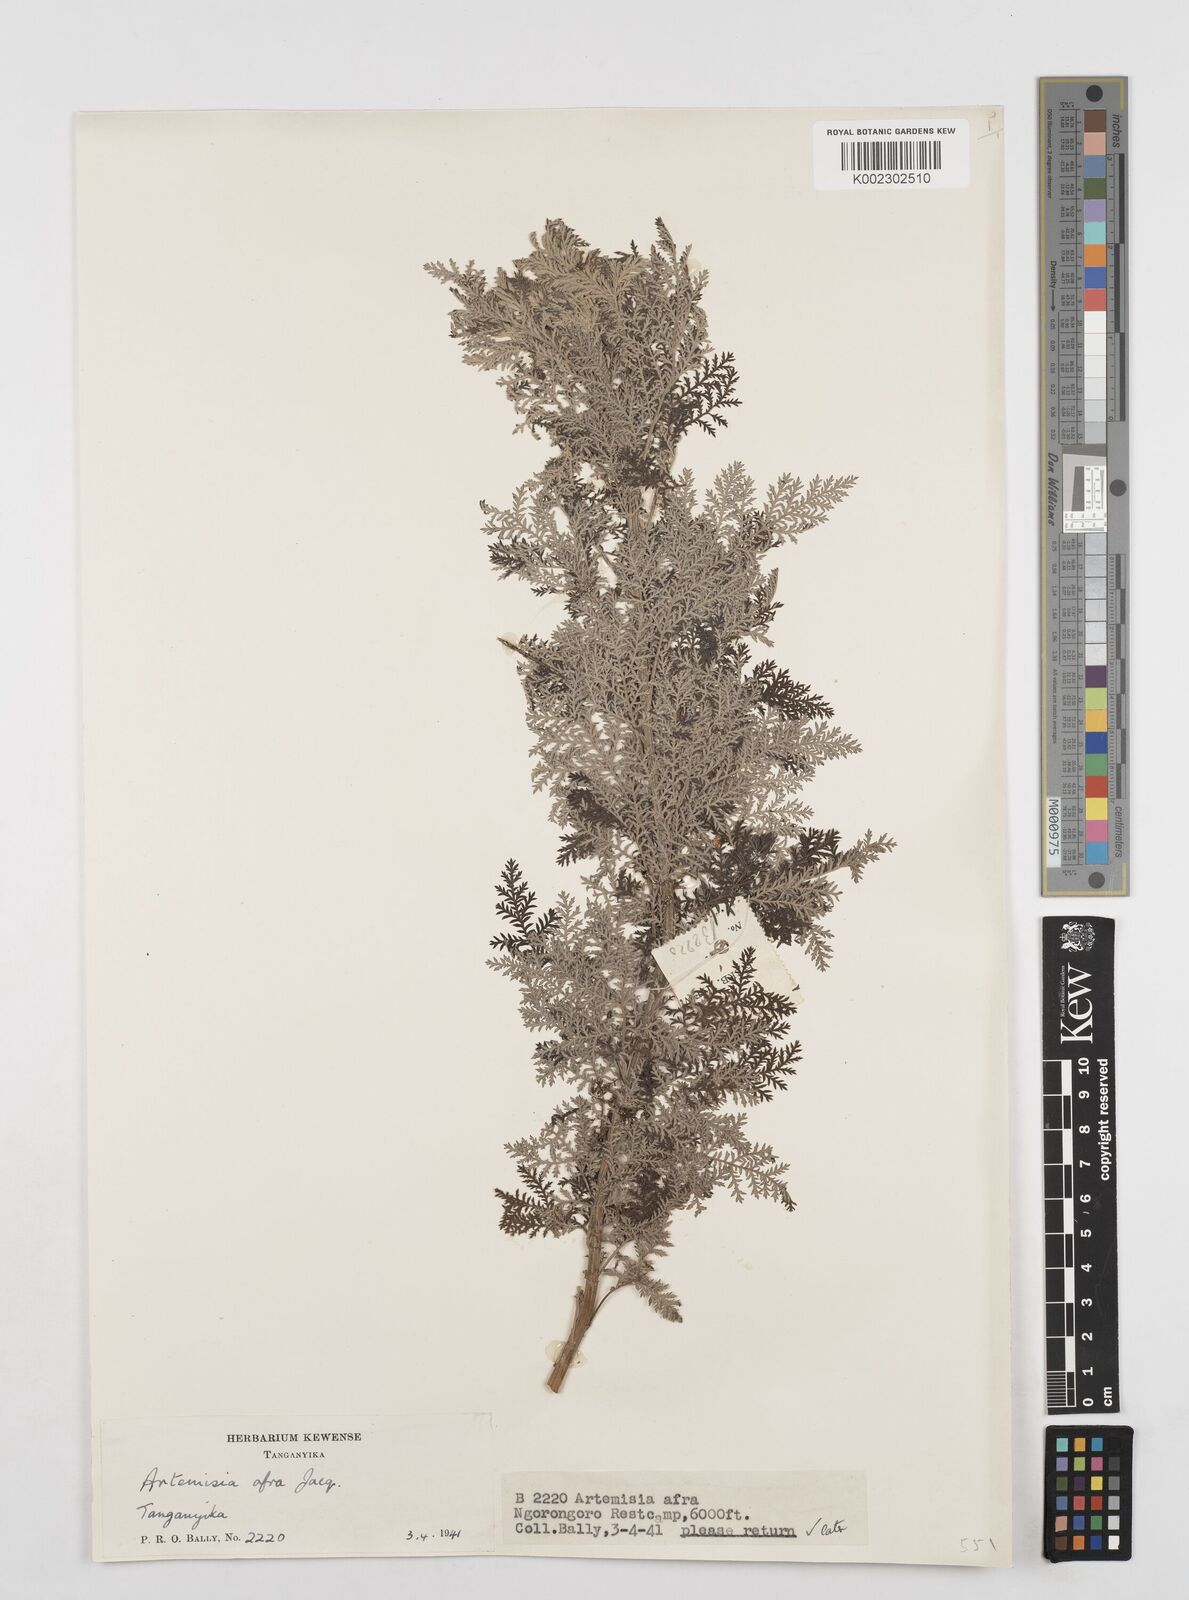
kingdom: Plantae
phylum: Tracheophyta
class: Magnoliopsida
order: Asterales
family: Asteraceae
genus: Artemisia
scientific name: Artemisia afra
